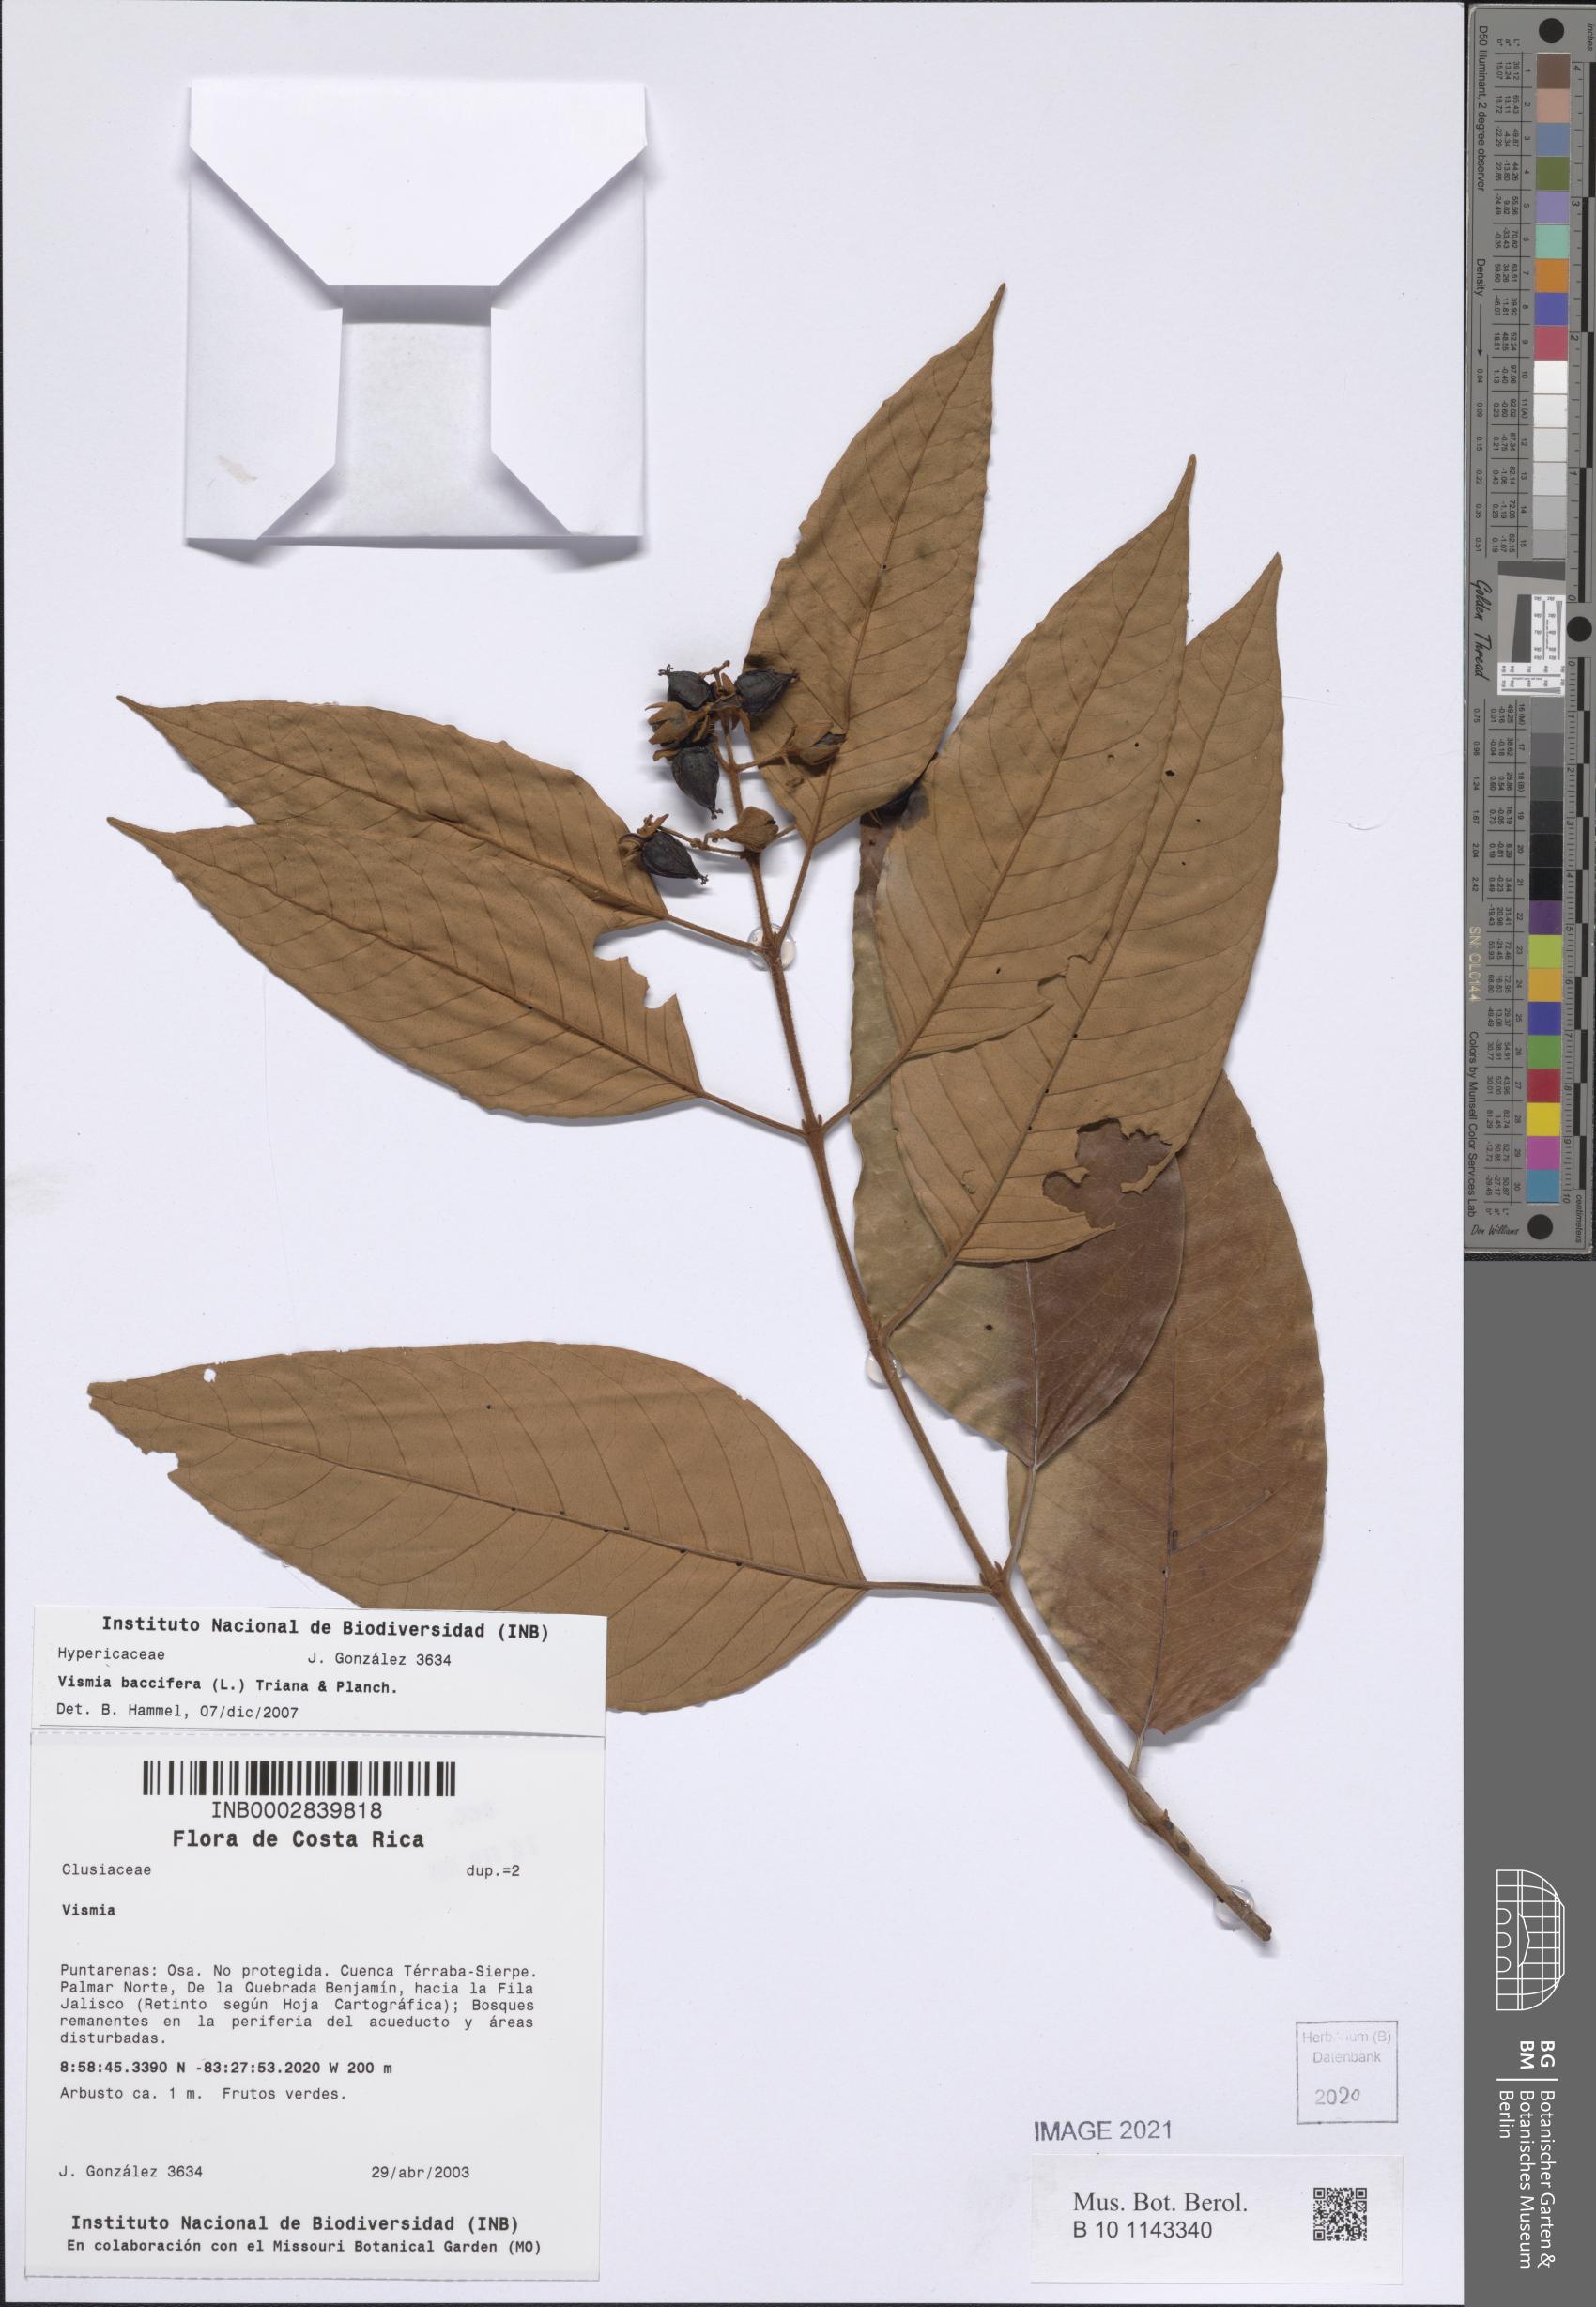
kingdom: Plantae
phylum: Tracheophyta
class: Magnoliopsida
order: Malpighiales
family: Hypericaceae
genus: Vismia
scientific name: Vismia baccifera
